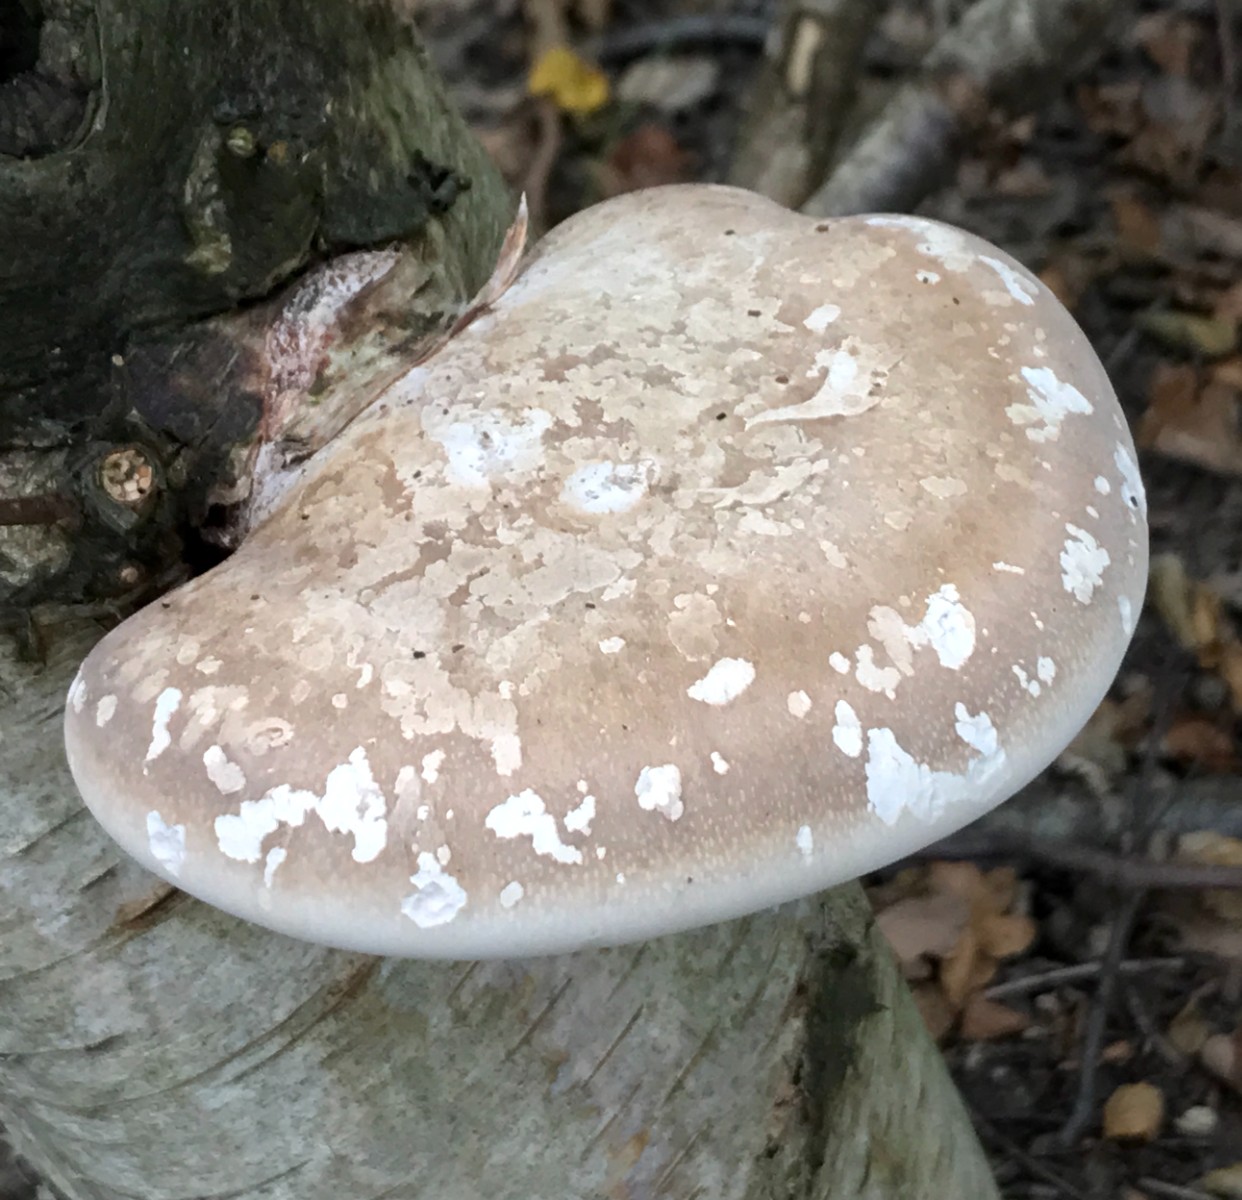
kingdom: Fungi
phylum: Basidiomycota
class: Agaricomycetes
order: Polyporales
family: Fomitopsidaceae
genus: Fomitopsis
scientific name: Fomitopsis betulina
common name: birkeporesvamp
